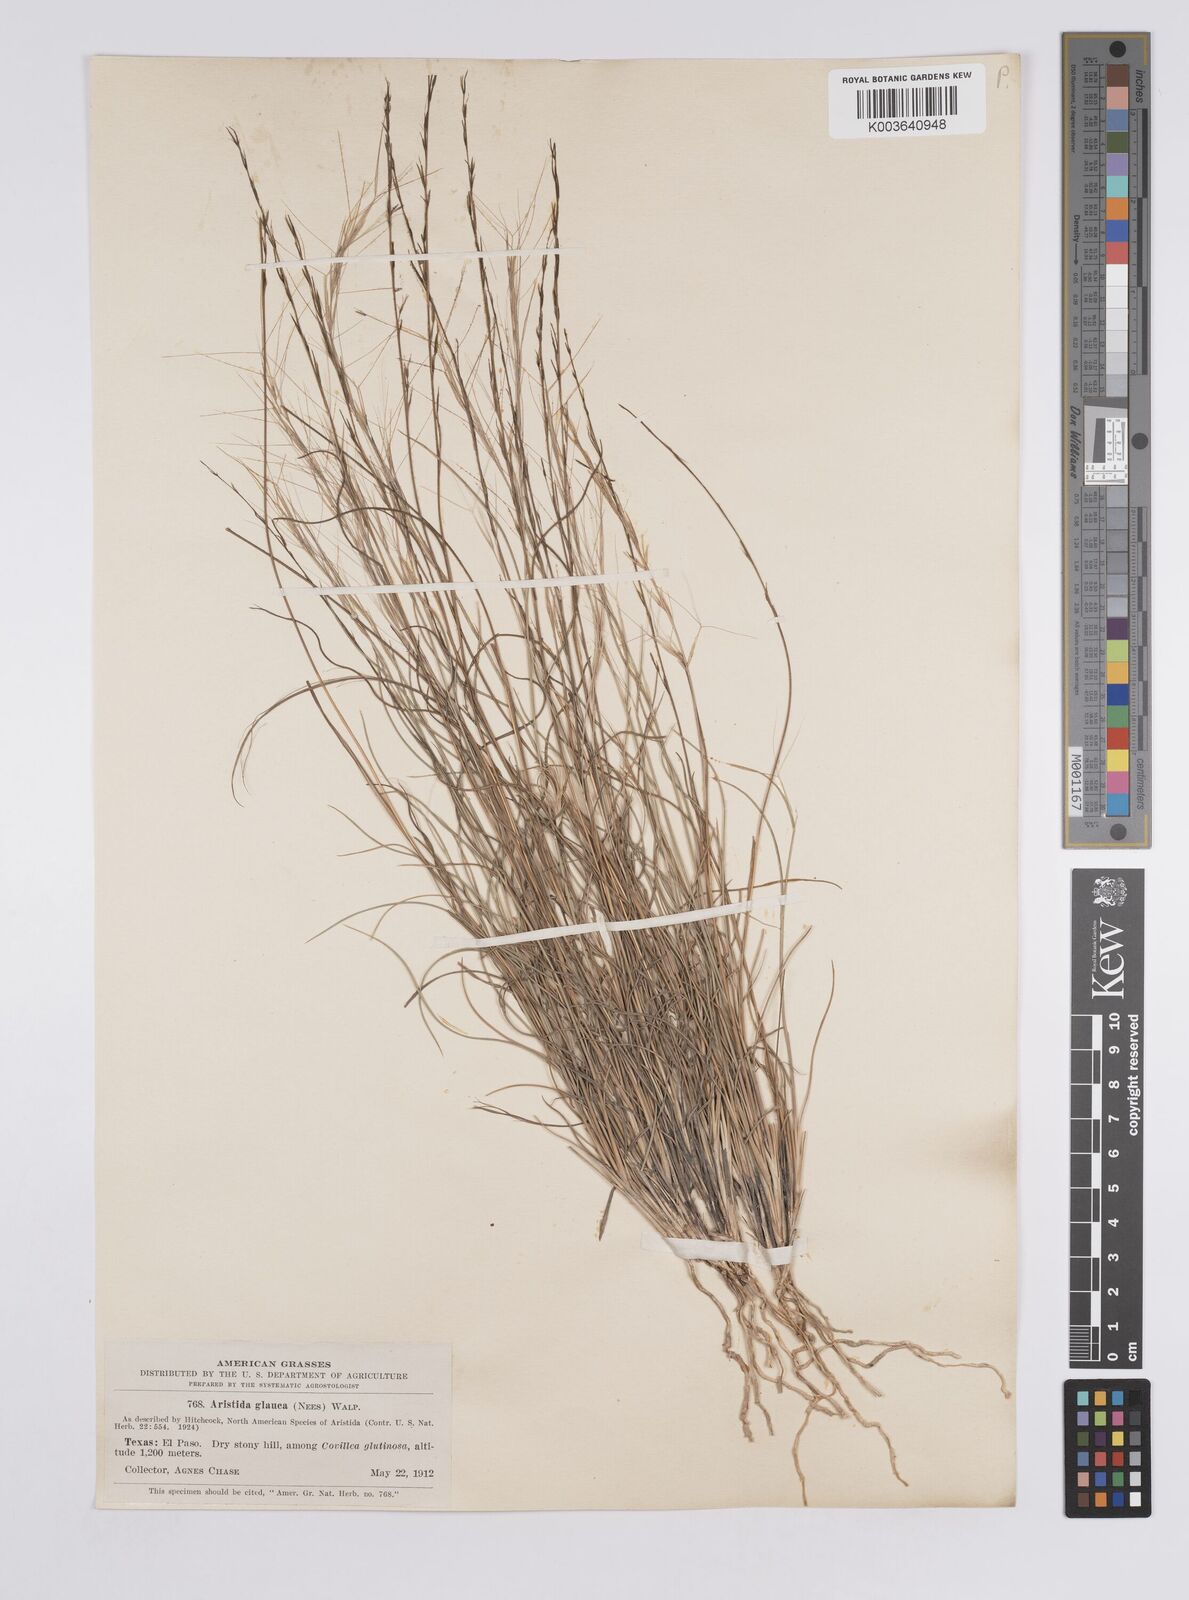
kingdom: Plantae
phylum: Tracheophyta
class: Liliopsida
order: Poales
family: Poaceae
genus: Aristida
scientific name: Aristida purpurea
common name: Purple threeawn
